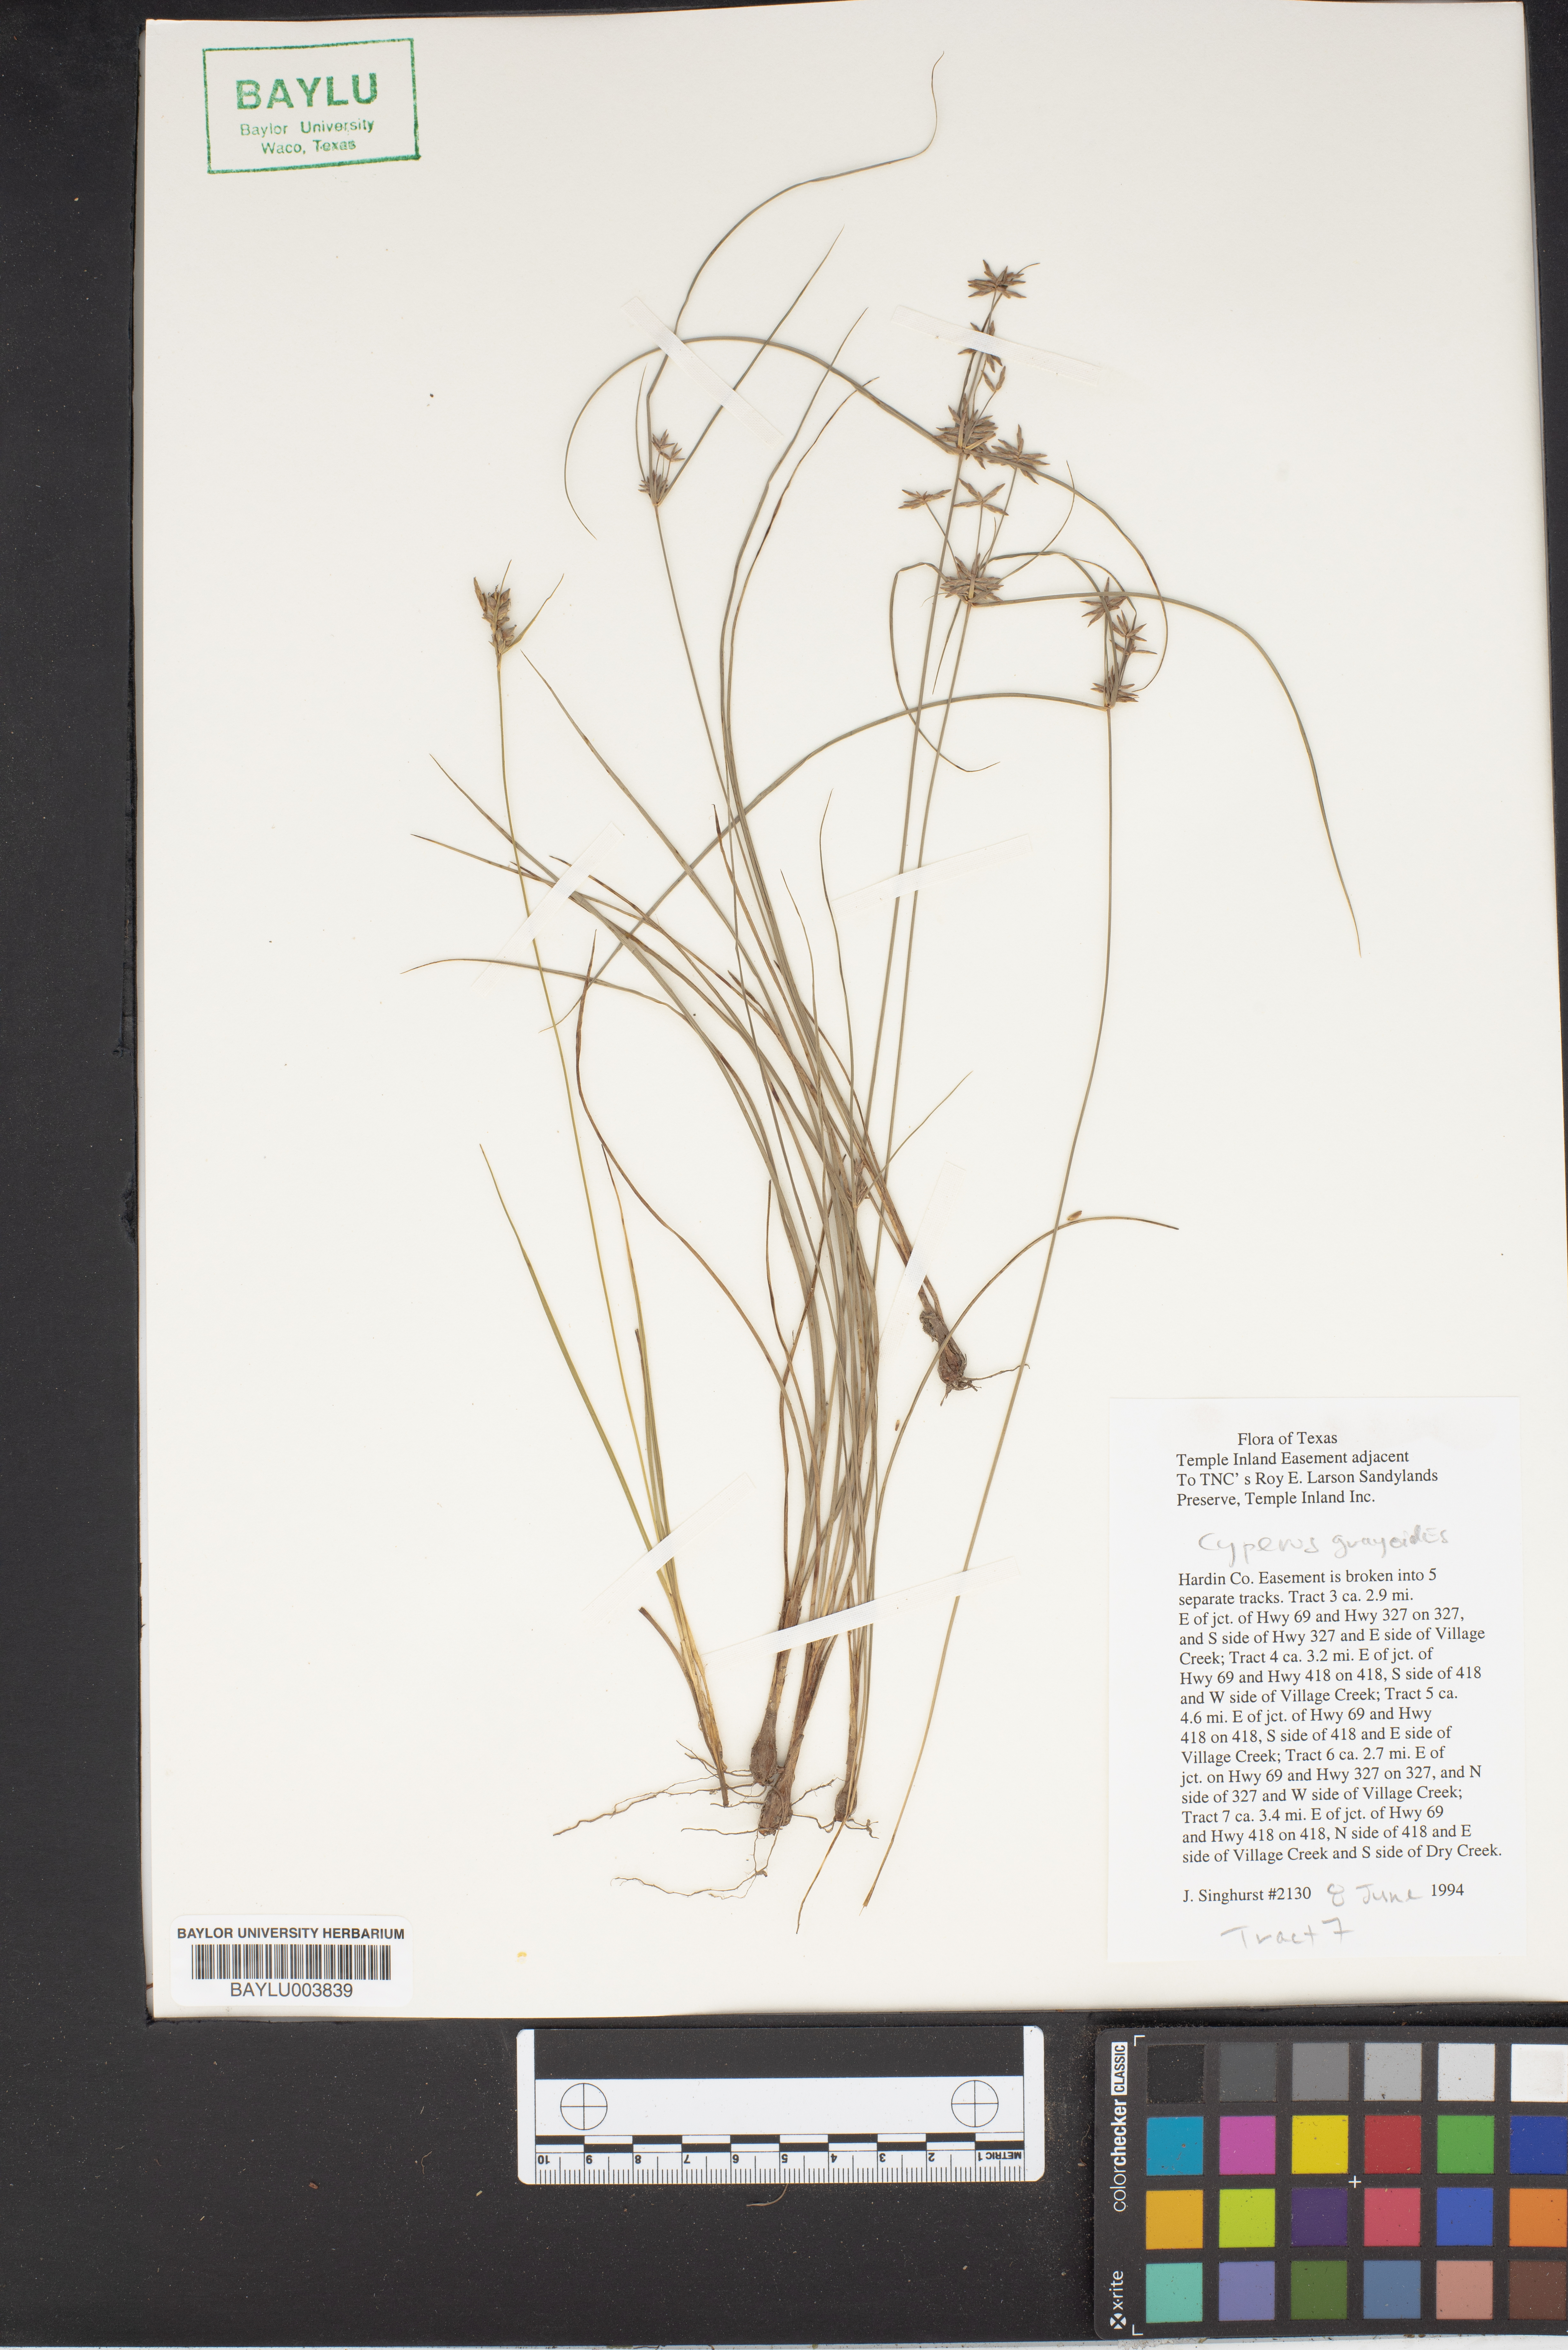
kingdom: Plantae
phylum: Tracheophyta
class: Liliopsida
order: Poales
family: Cyperaceae
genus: Cyperus
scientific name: Cyperus grayioides
